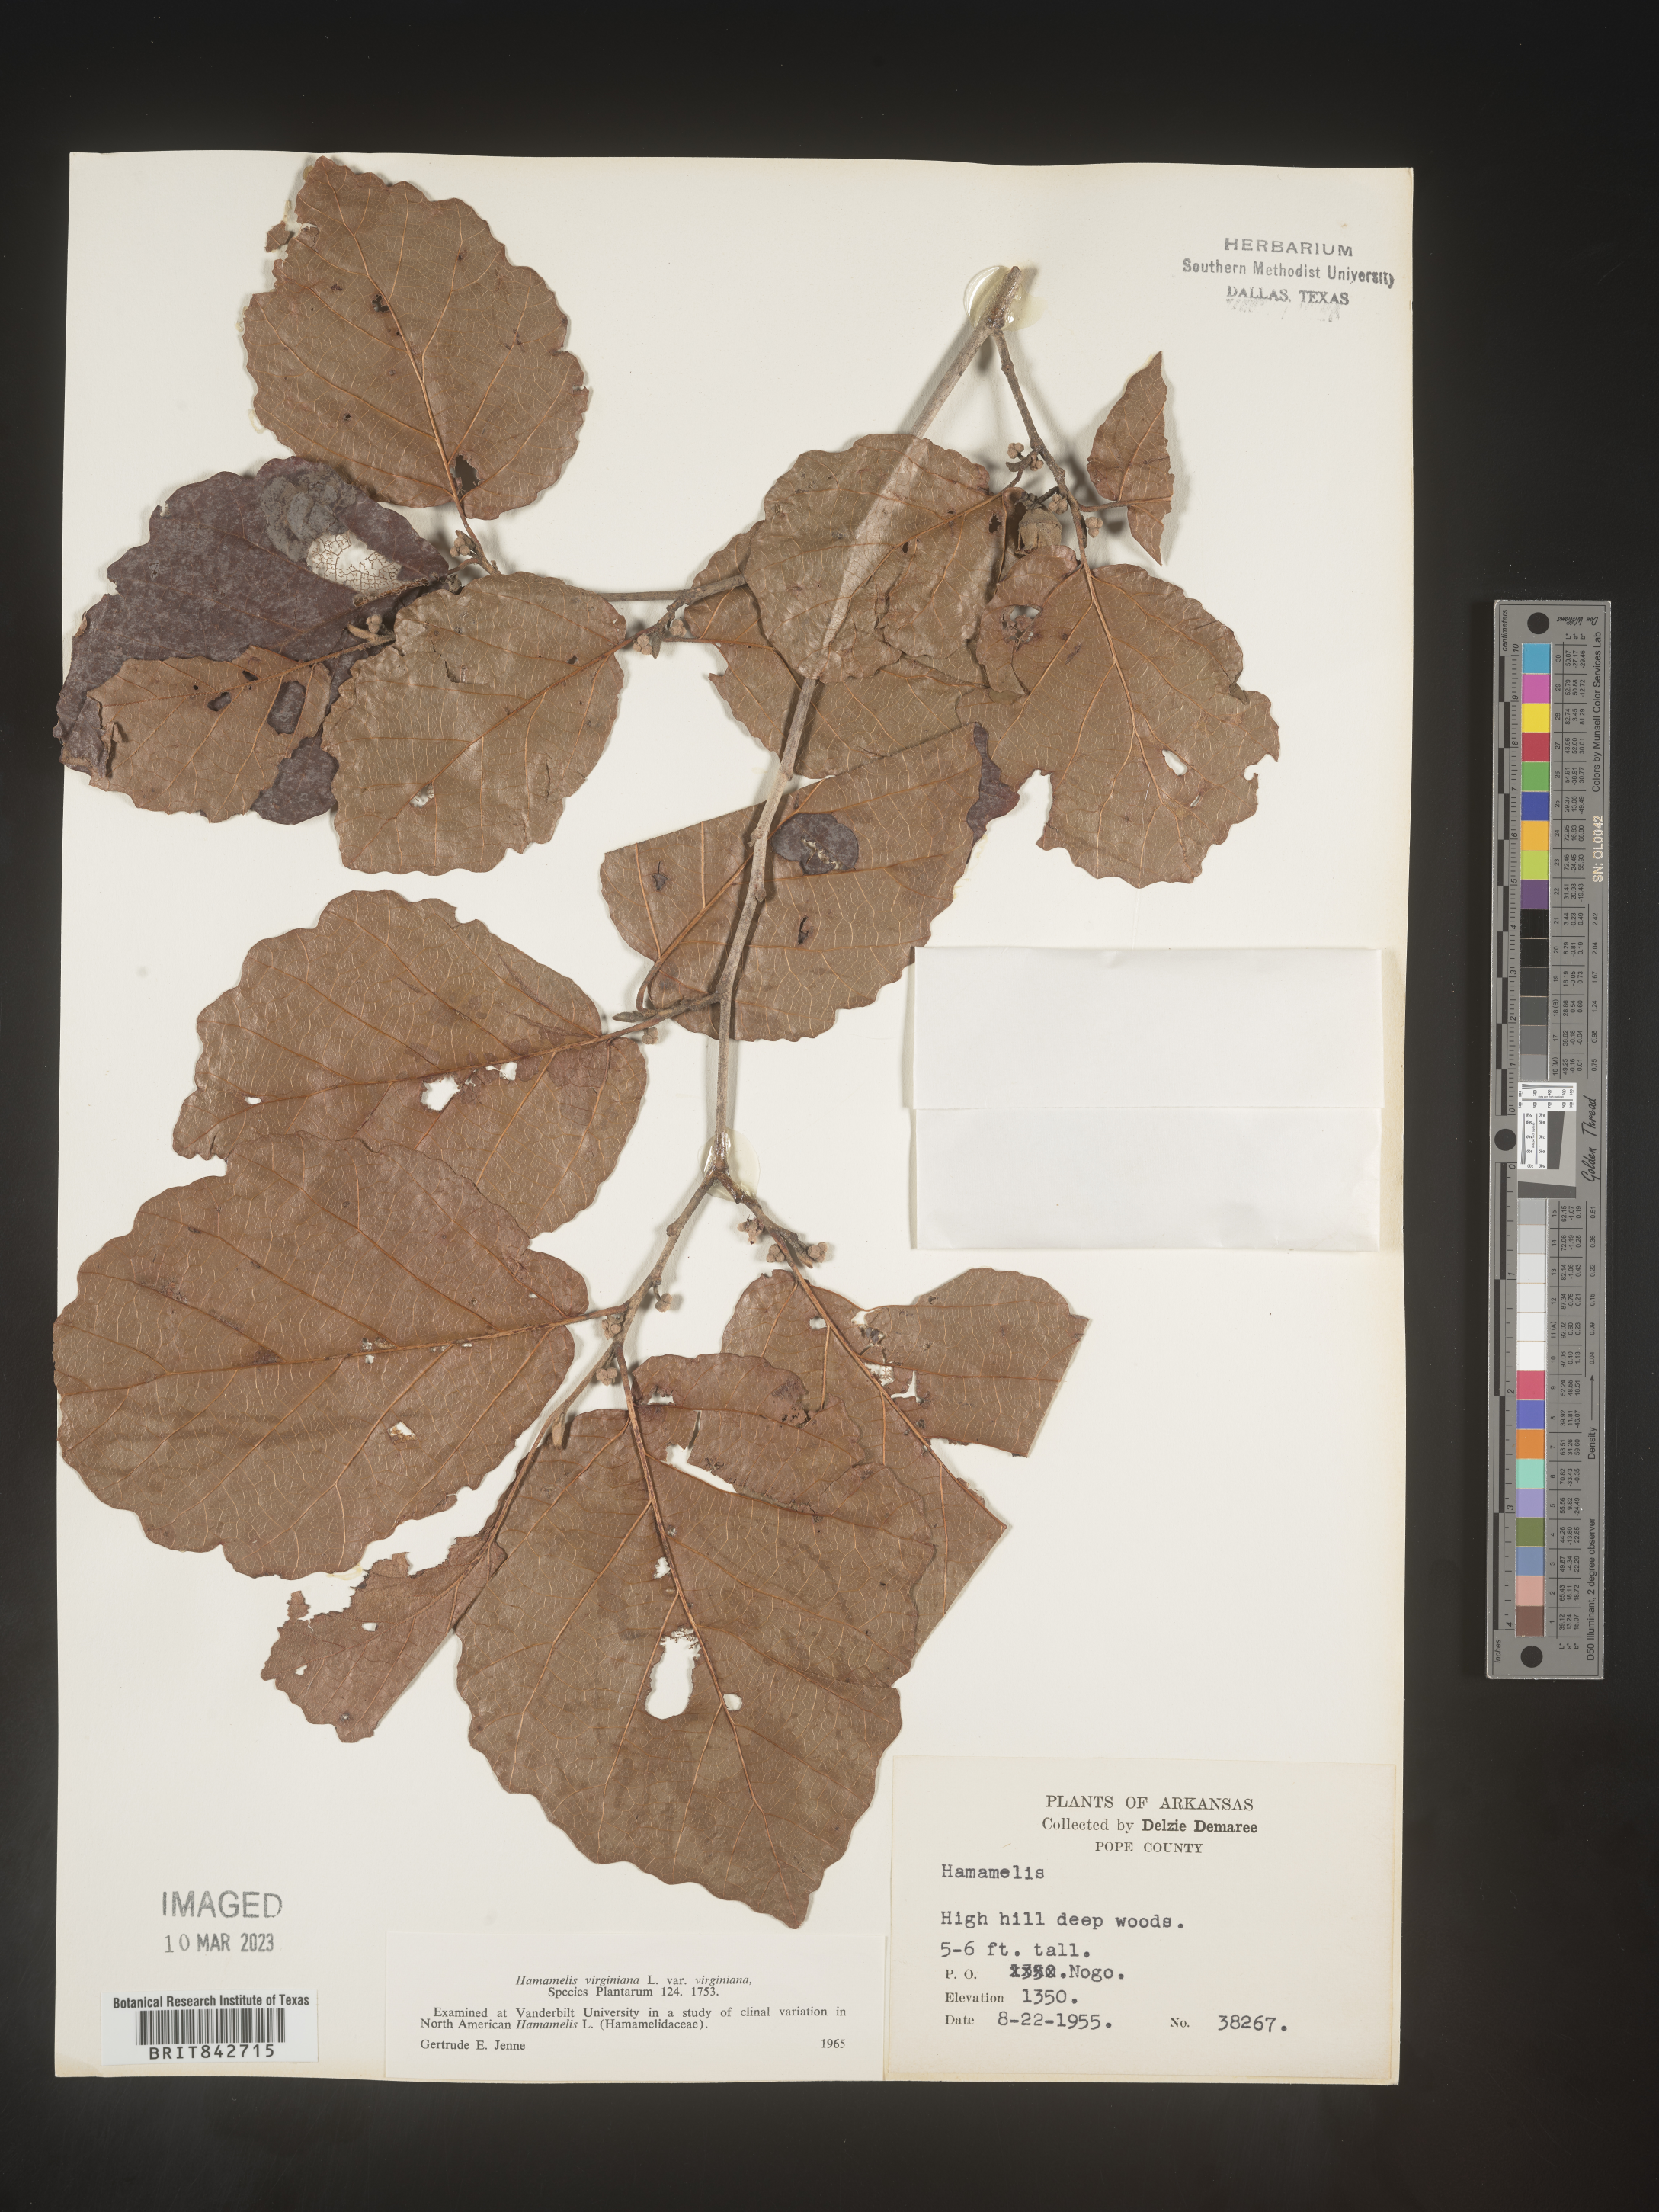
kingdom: Plantae
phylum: Tracheophyta
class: Magnoliopsida
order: Saxifragales
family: Hamamelidaceae
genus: Hamamelis
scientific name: Hamamelis virginiana
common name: Witch-hazel
